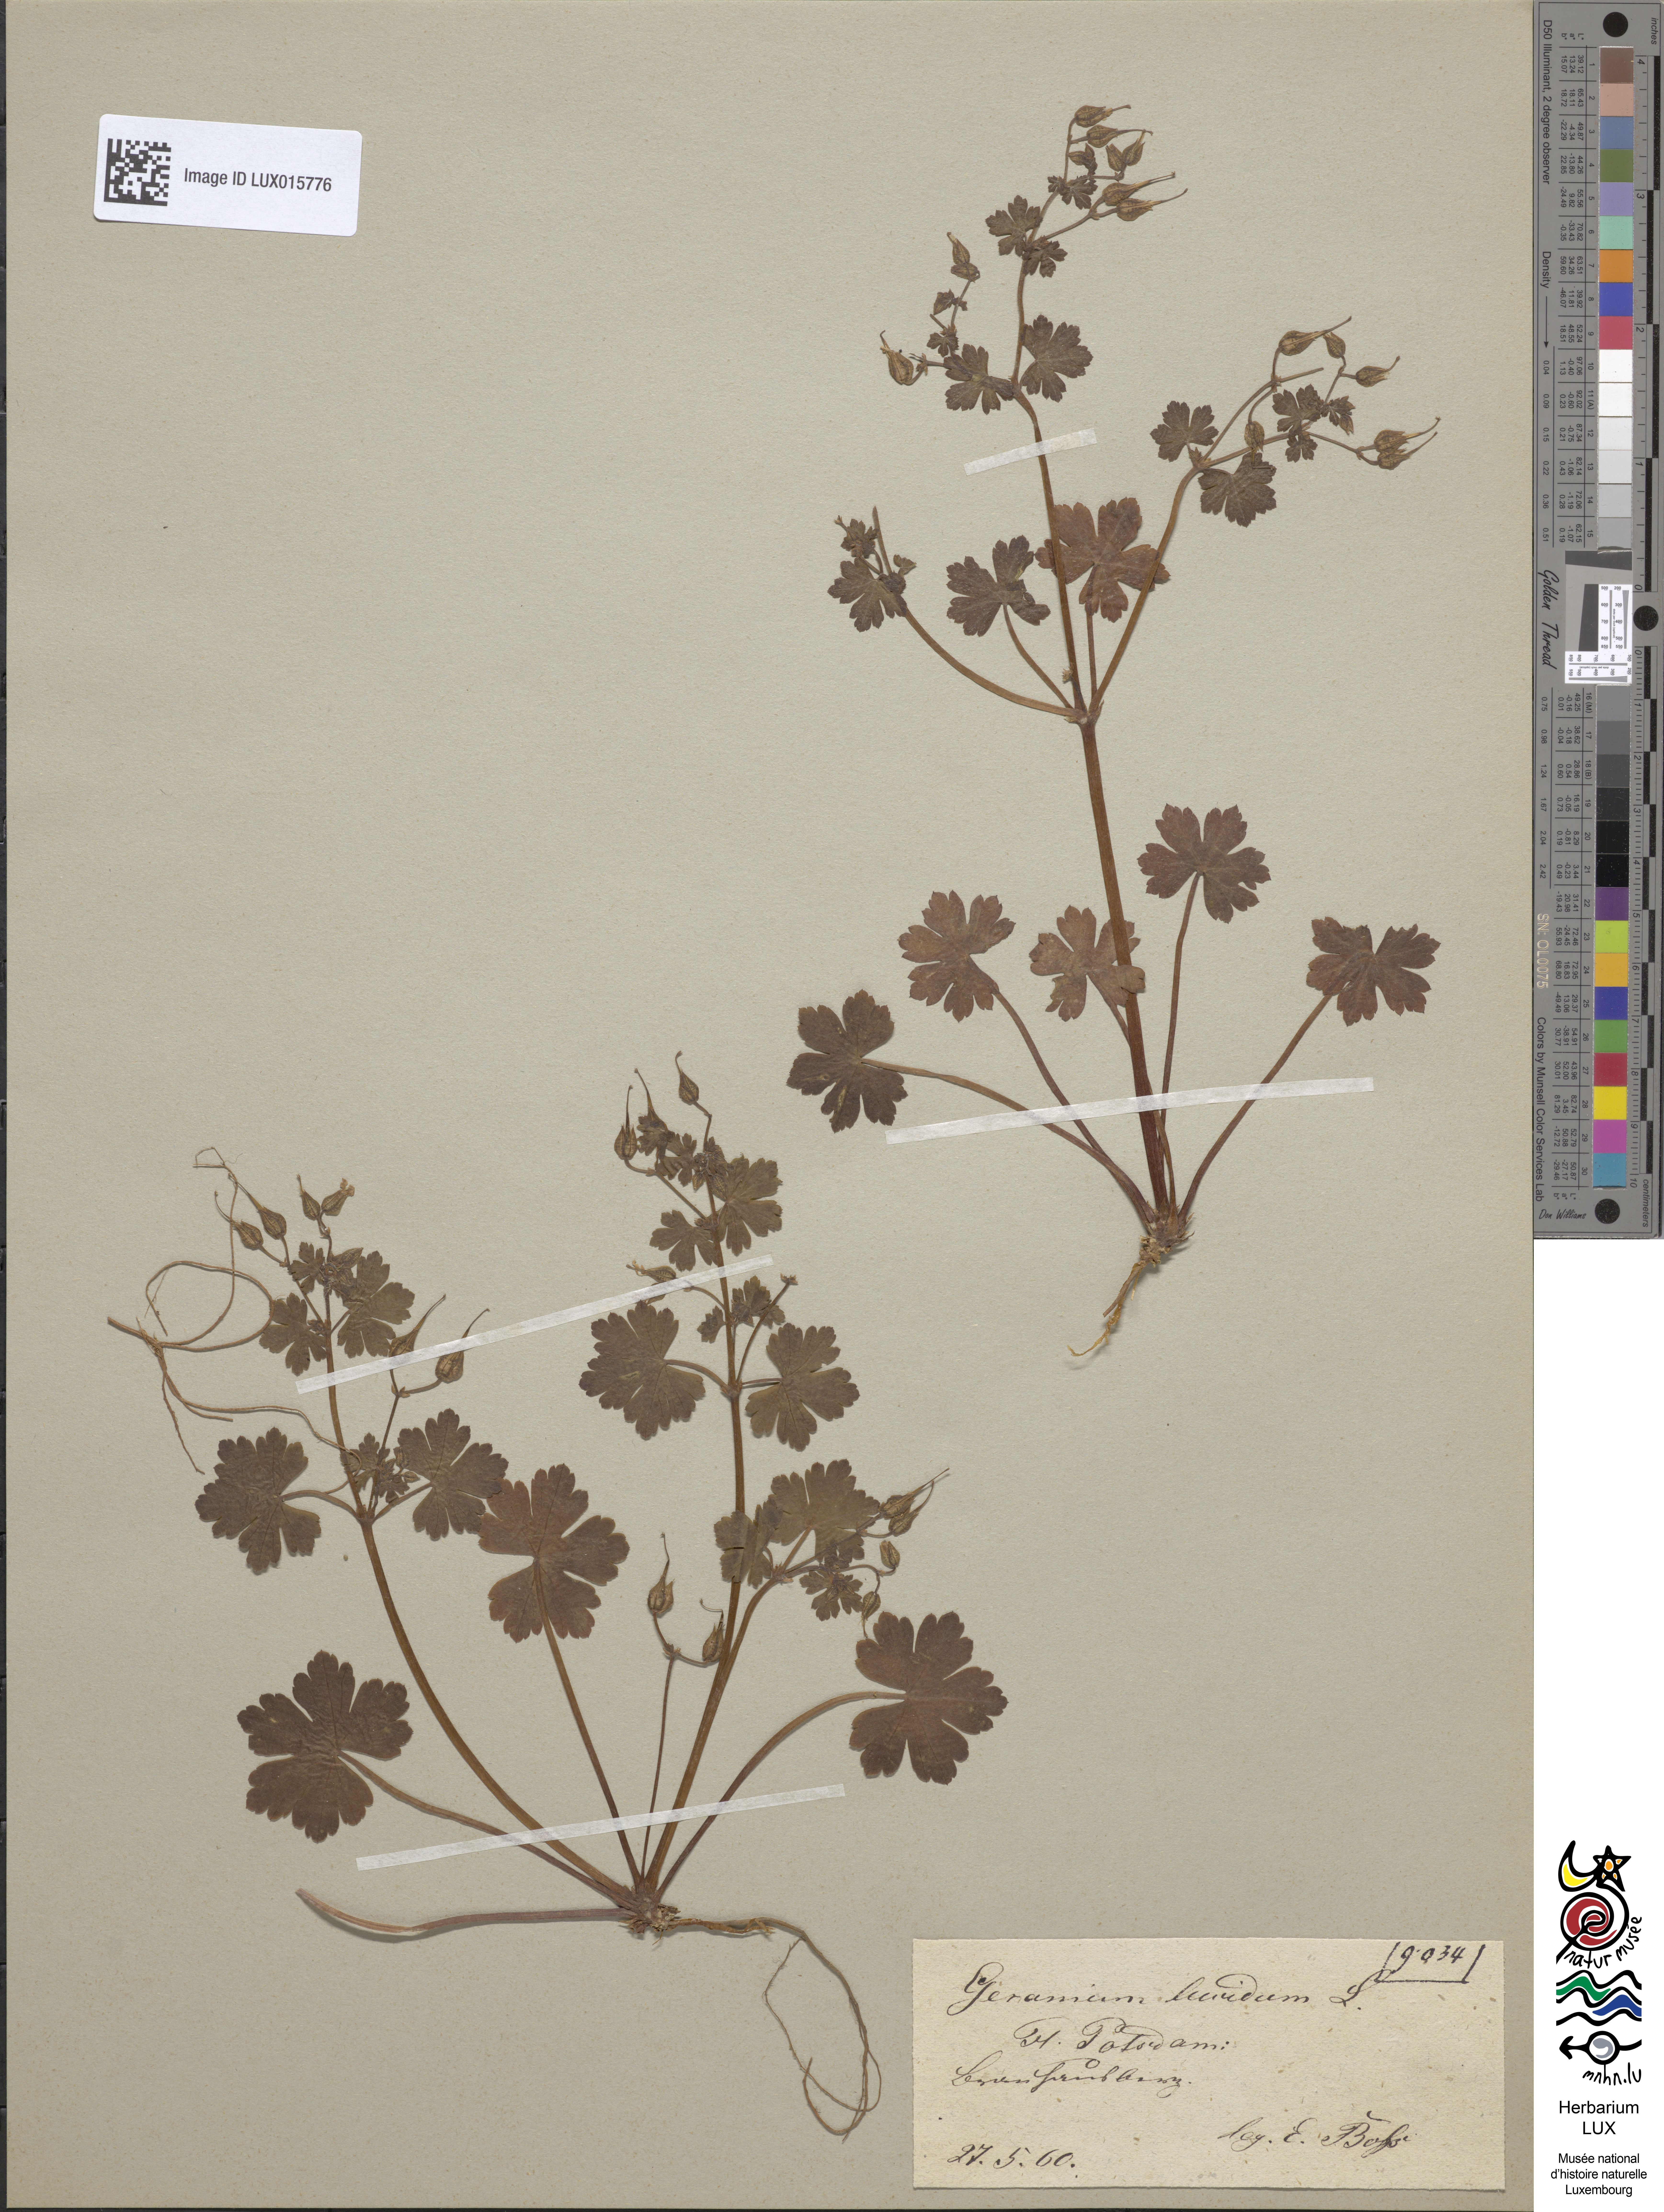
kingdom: Plantae
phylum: Tracheophyta
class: Magnoliopsida
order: Geraniales
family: Geraniaceae
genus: Geranium
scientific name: Geranium lucidum
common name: Shining crane's-bill
